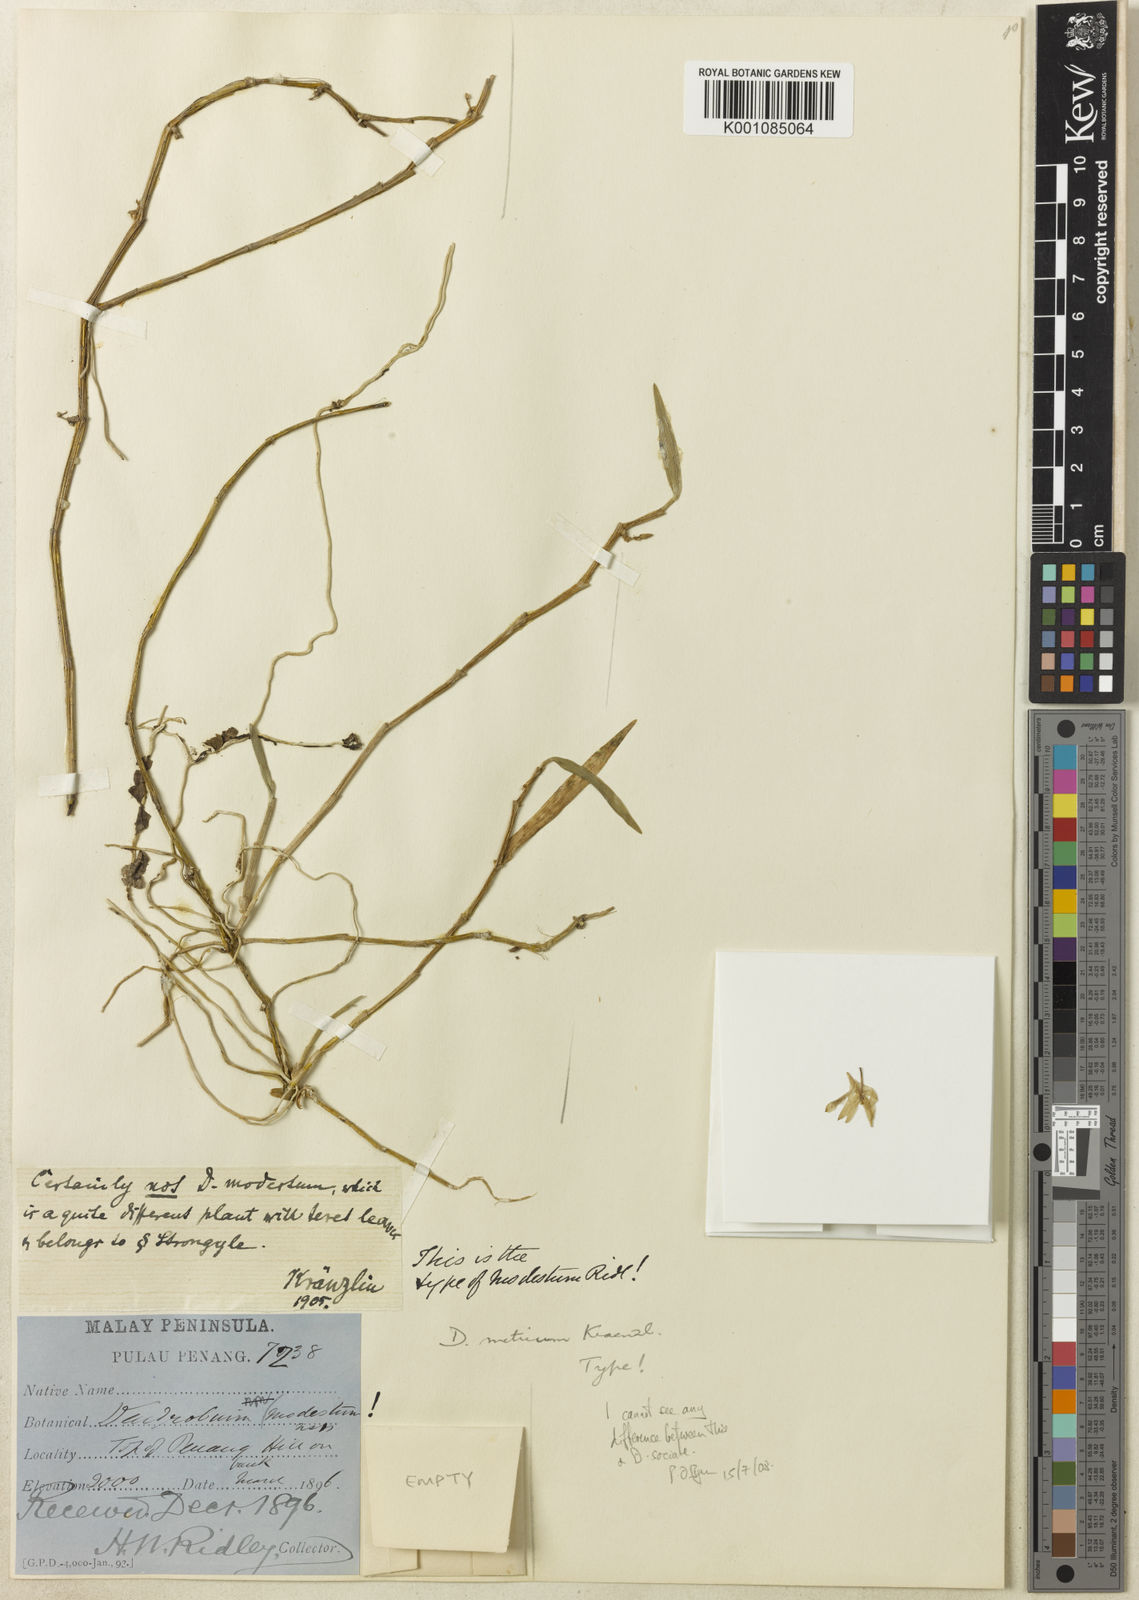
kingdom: Plantae
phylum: Tracheophyta
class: Liliopsida
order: Asparagales
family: Orchidaceae
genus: Dendrobium
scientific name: Dendrobium metrium
